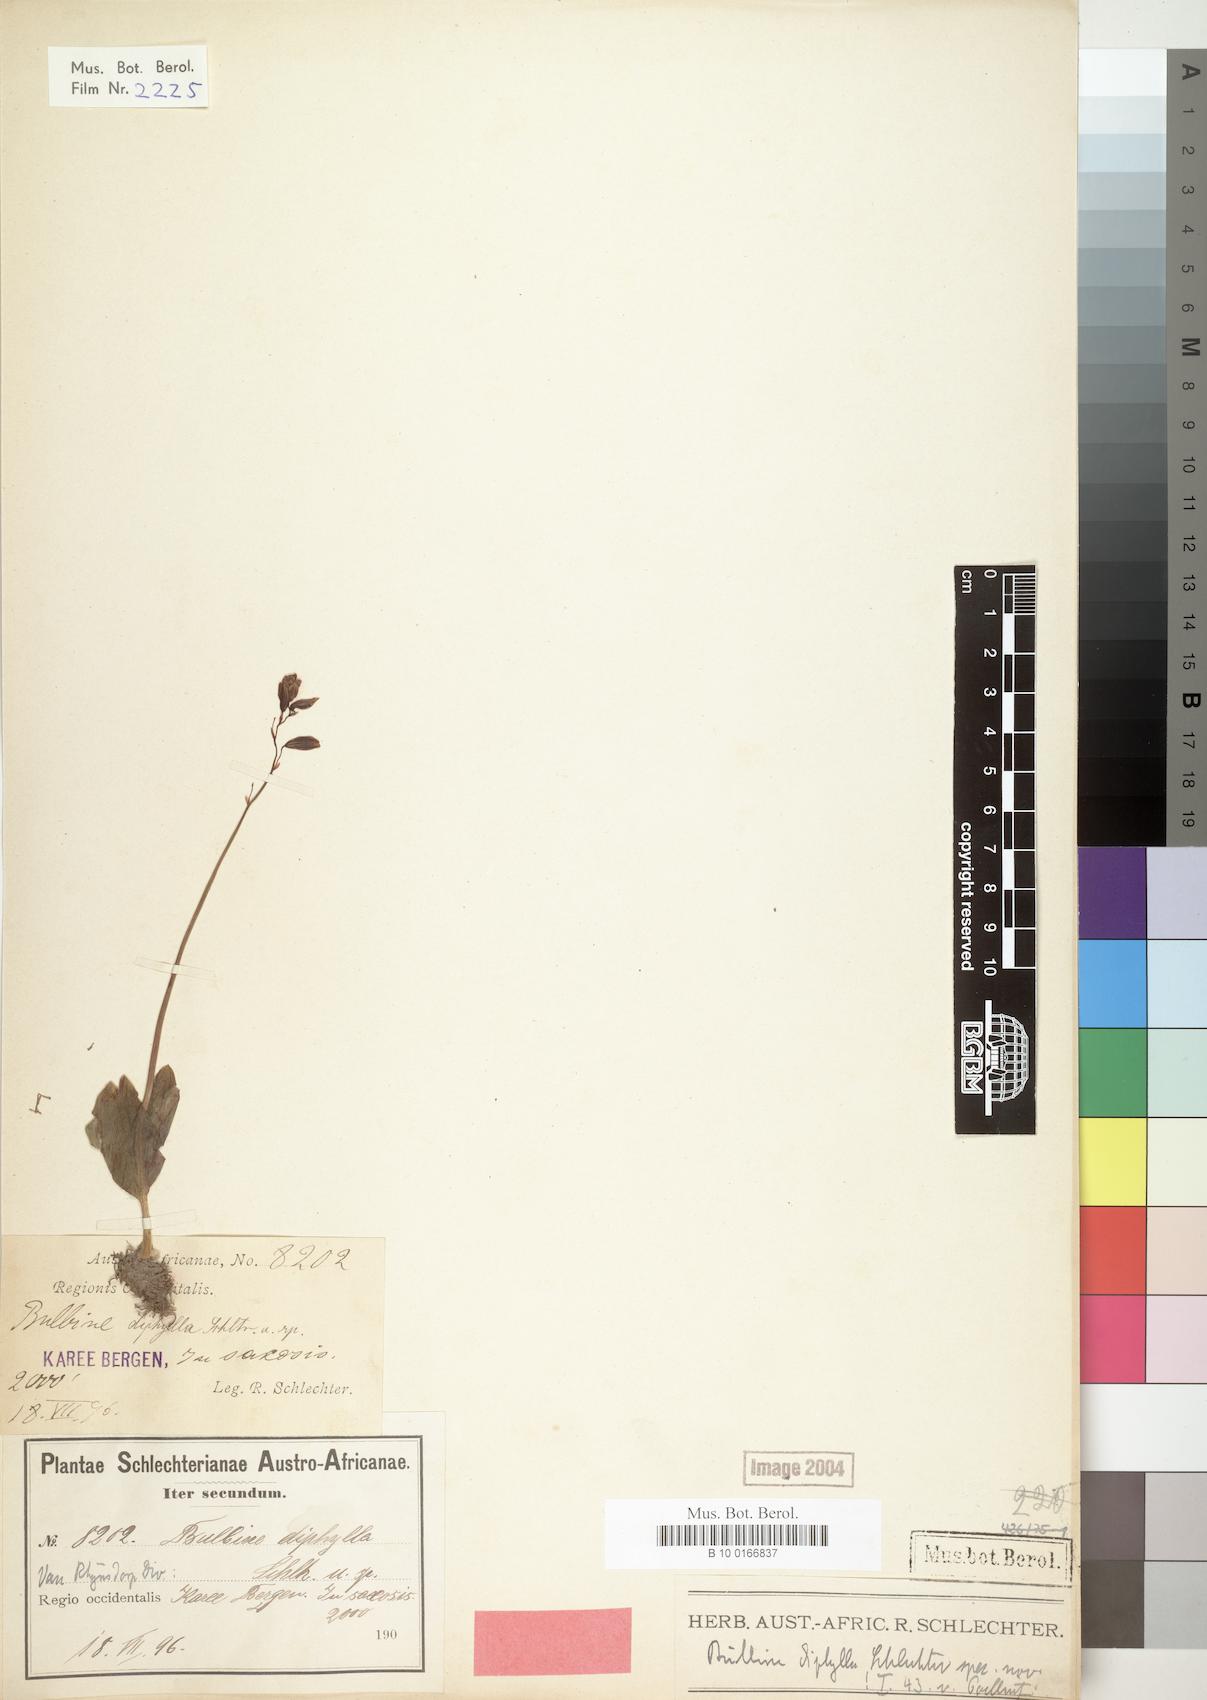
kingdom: Plantae
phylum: Tracheophyta
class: Liliopsida
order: Asparagales
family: Asphodelaceae
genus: Bulbine
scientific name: Bulbine diphylla
